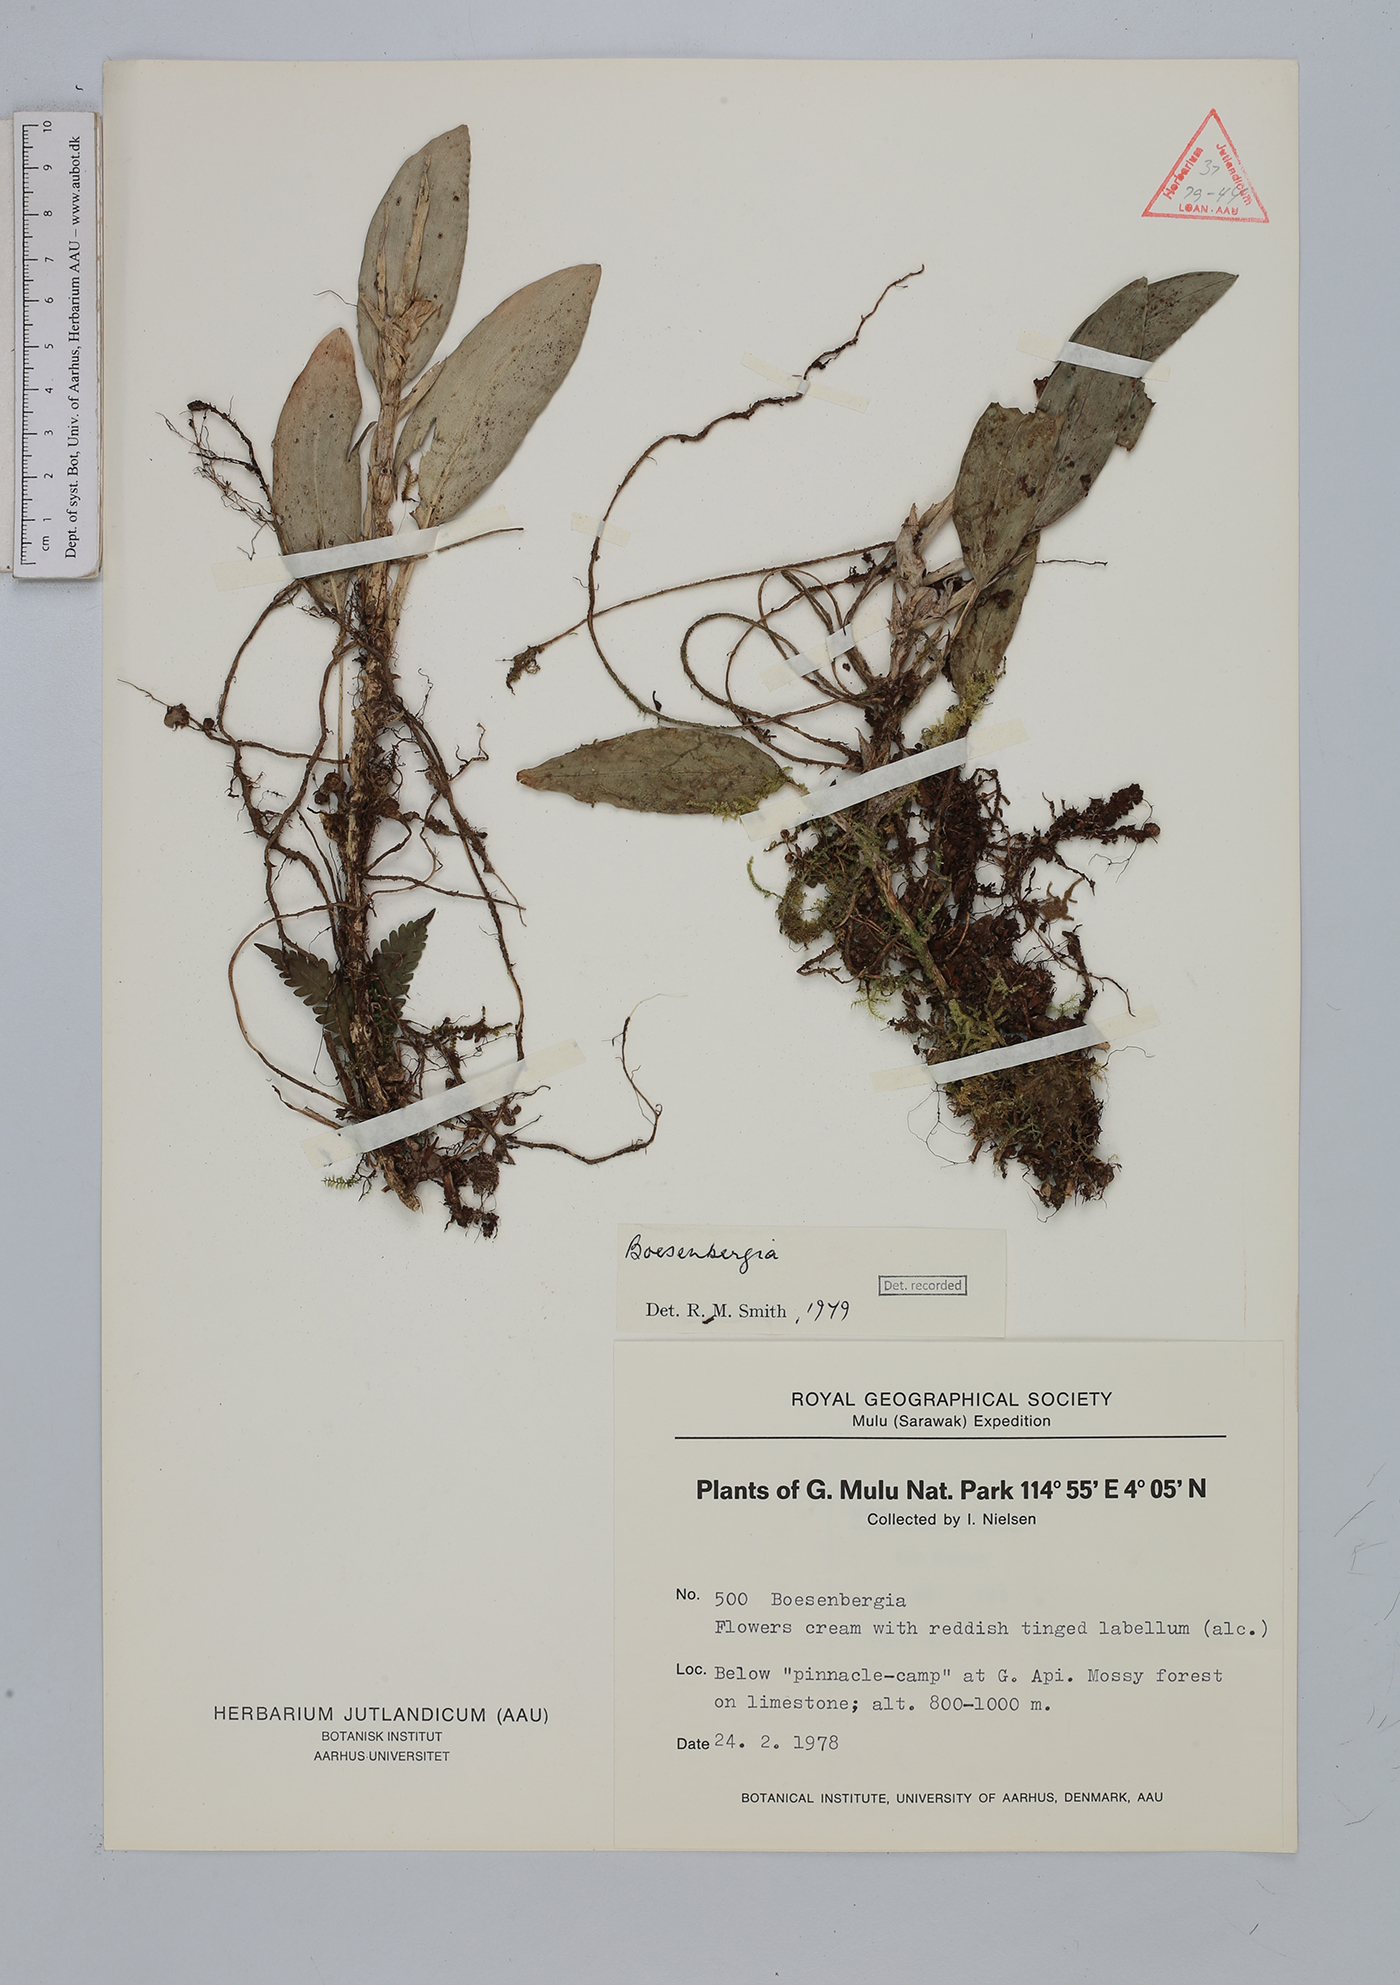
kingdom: Plantae
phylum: Tracheophyta
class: Liliopsida
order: Zingiberales
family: Zingiberaceae
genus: Boesenbergia
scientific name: Boesenbergia oligosperma
